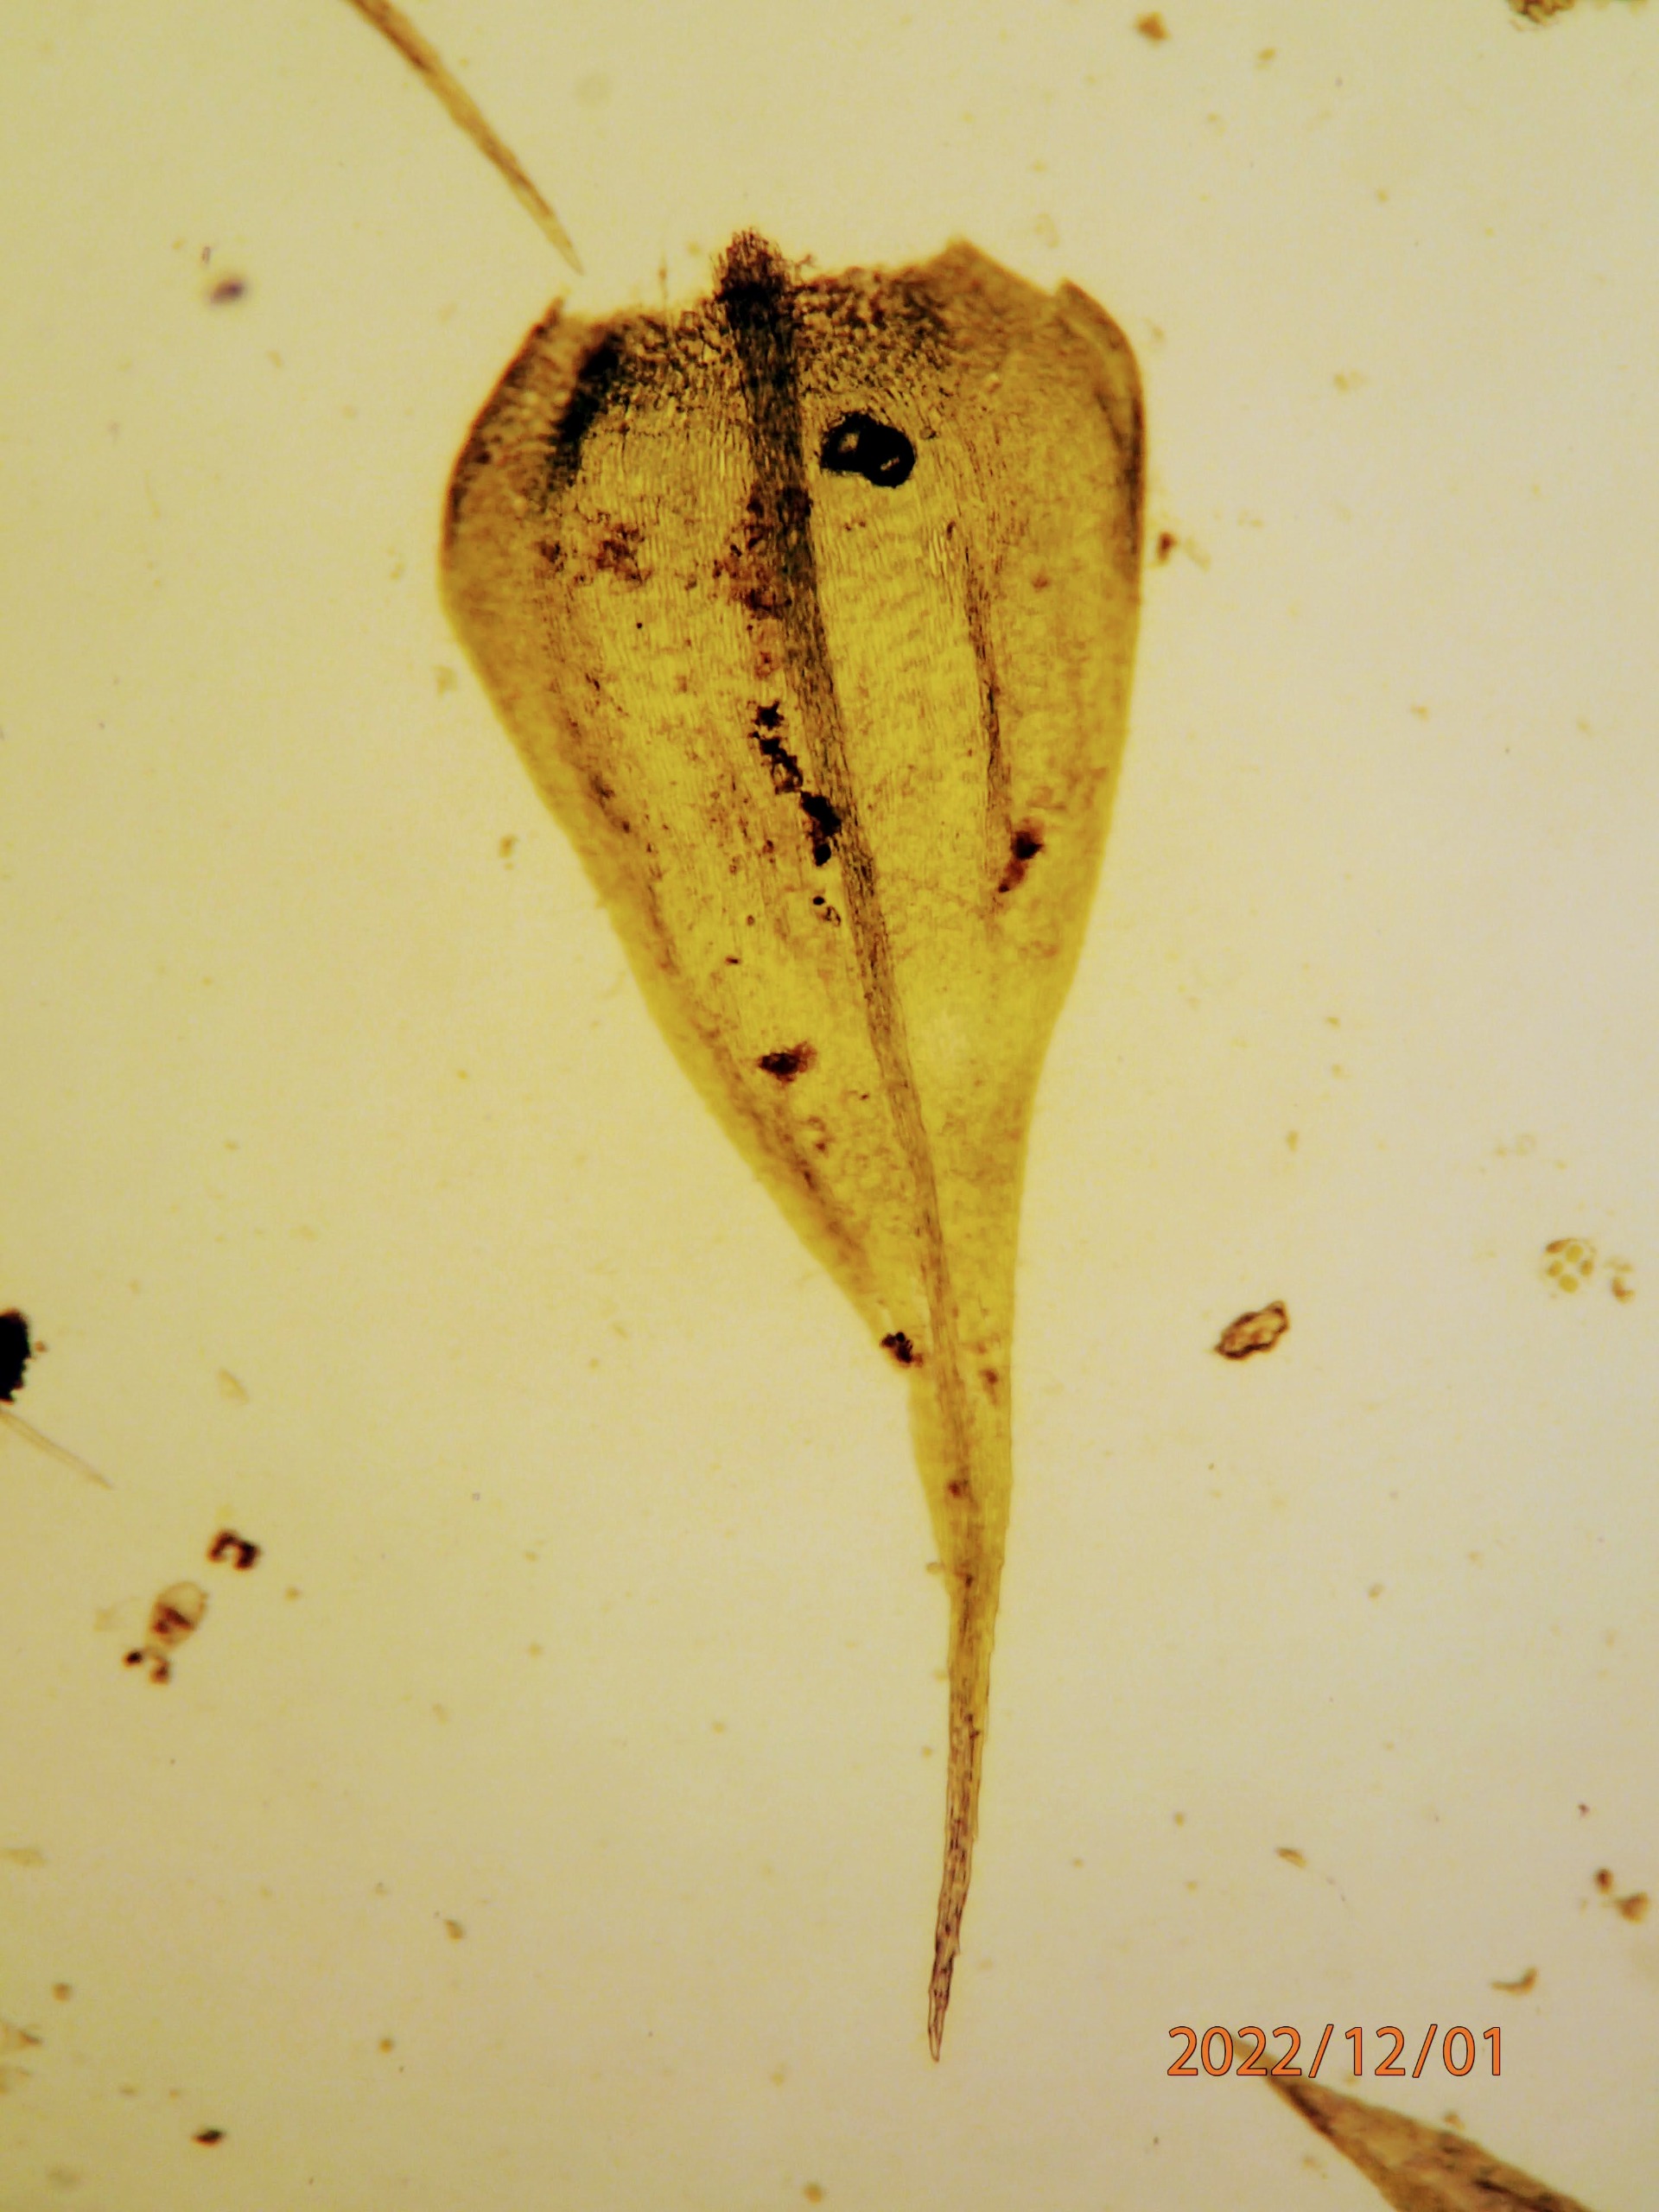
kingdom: Plantae
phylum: Bryophyta
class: Bryopsida
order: Hypnales
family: Brachytheciaceae
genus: Sciuro-hypnum
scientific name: Sciuro-hypnum populeum
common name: Park-kortkapsel
